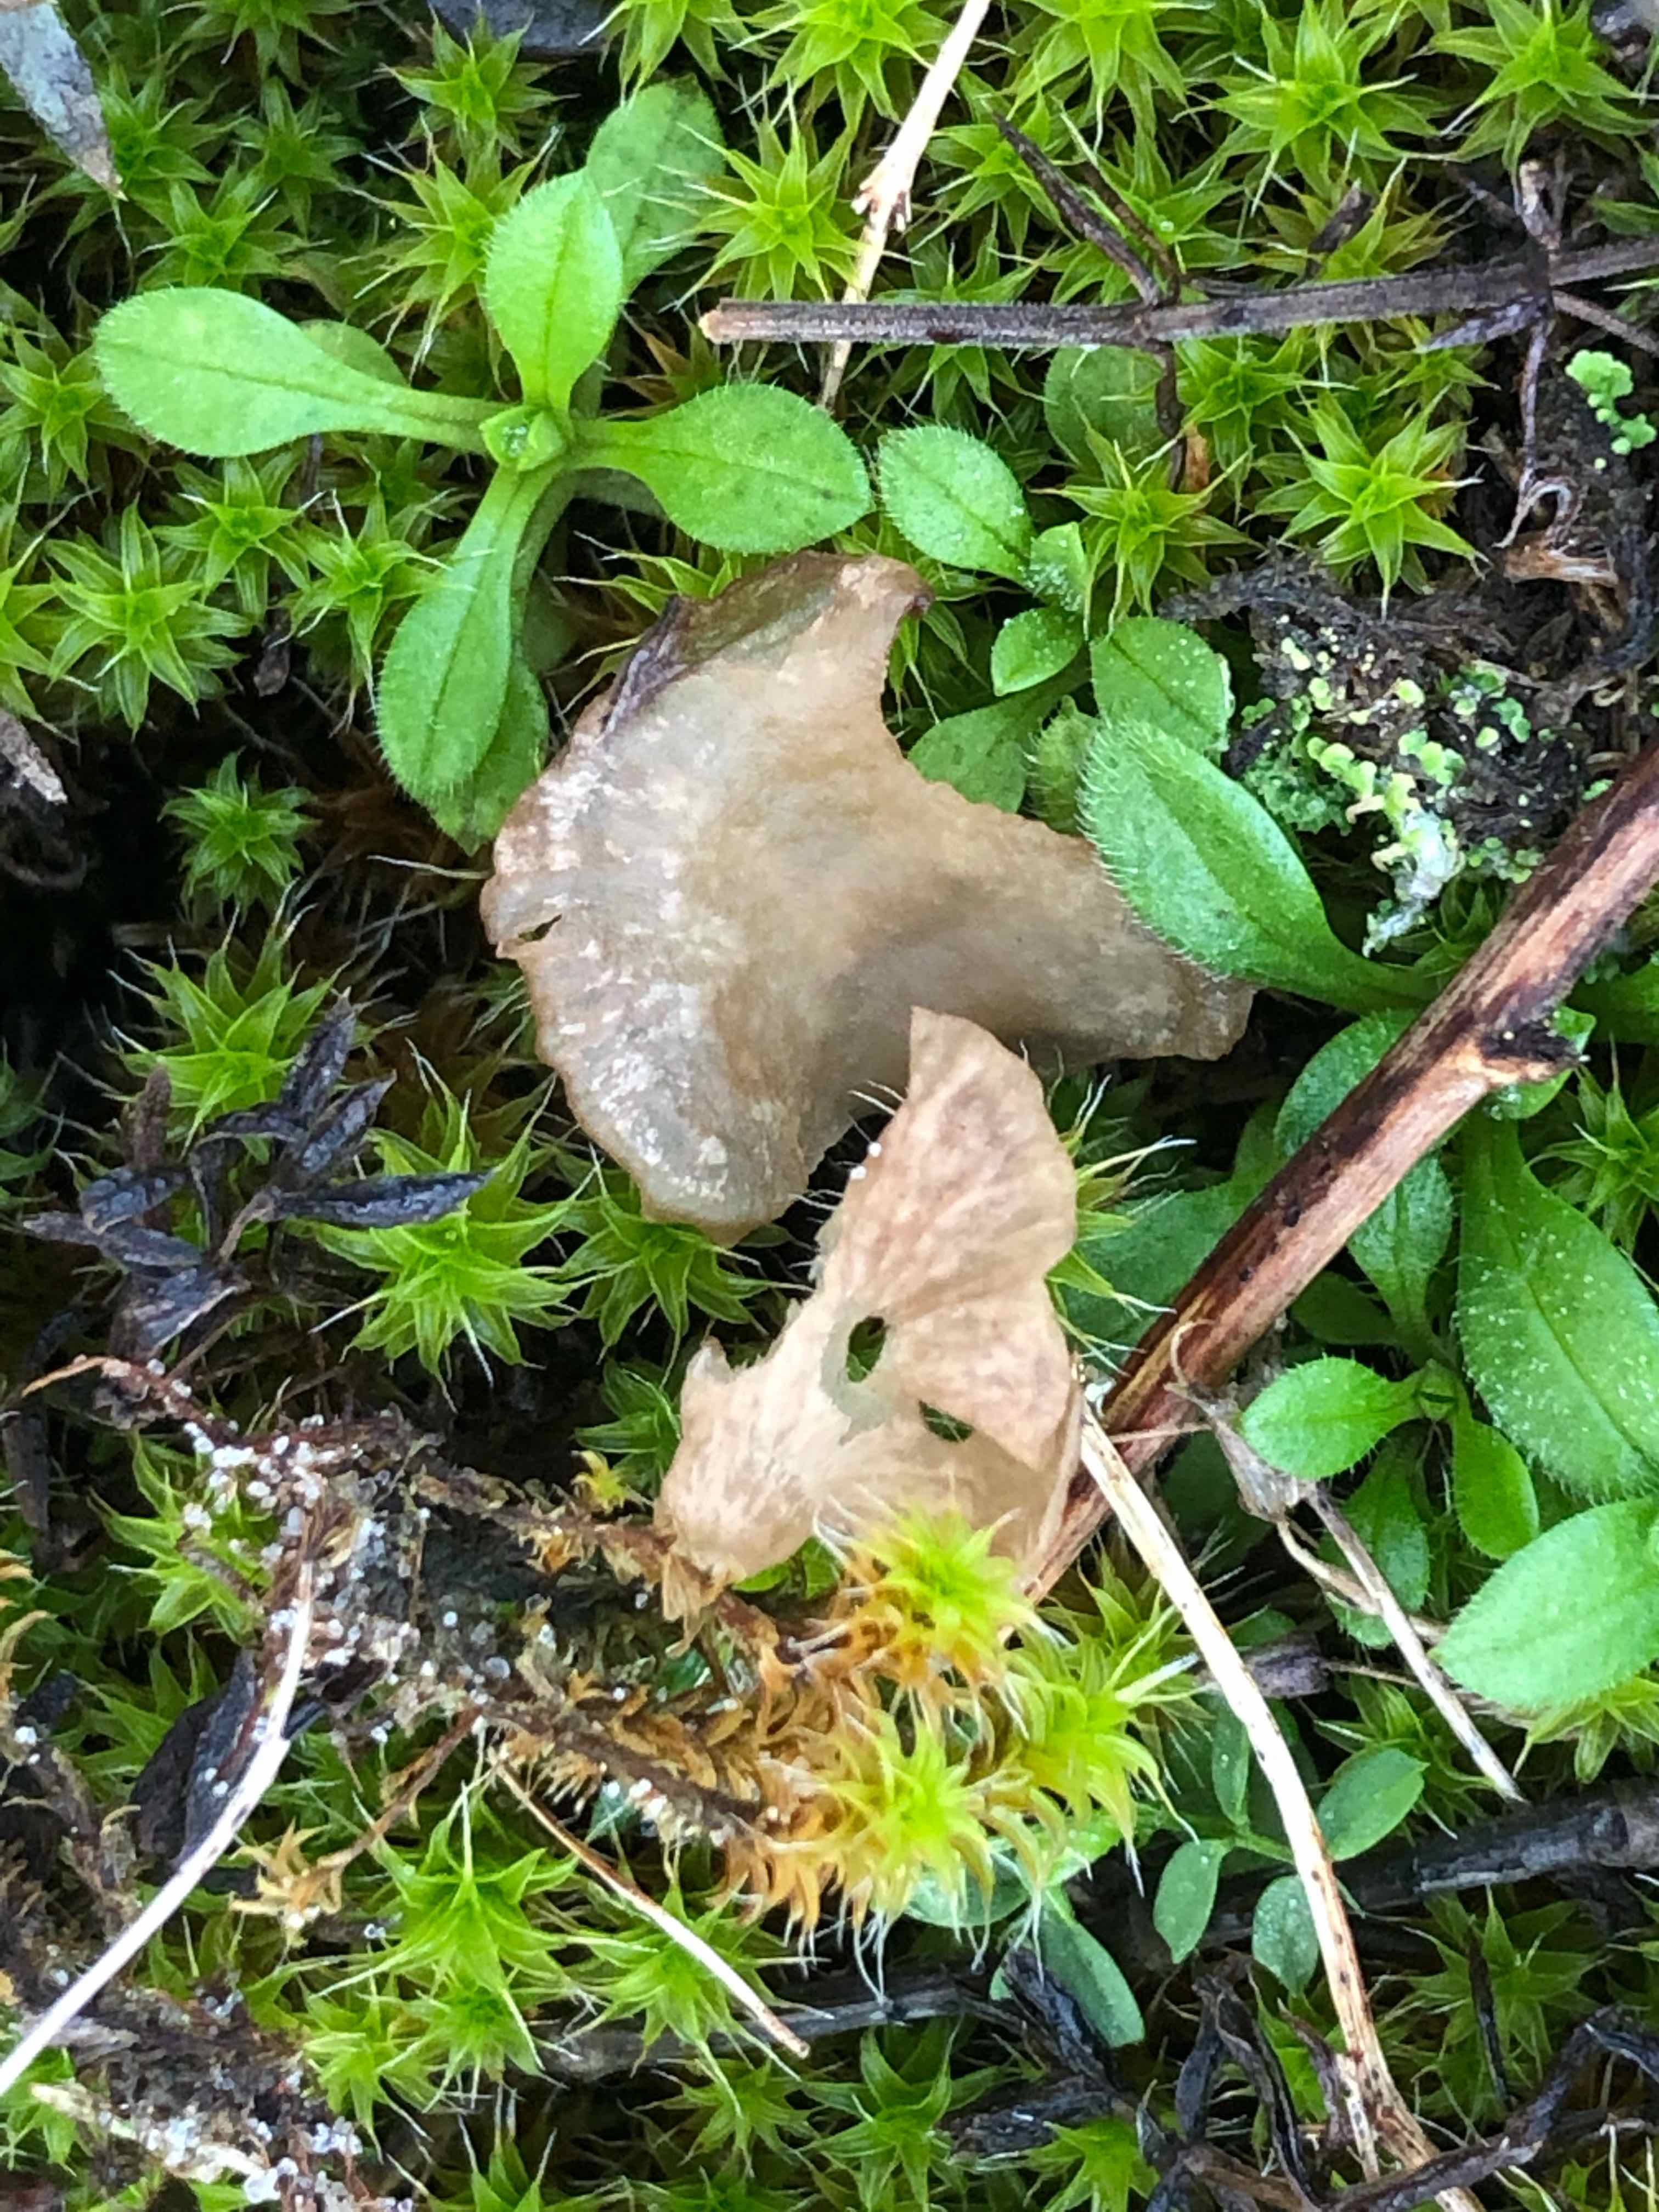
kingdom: Fungi
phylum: Basidiomycota
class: Agaricomycetes
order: Agaricales
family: Hygrophoraceae
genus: Arrhenia
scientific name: Arrhenia spathulata
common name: skæv fontænehat
